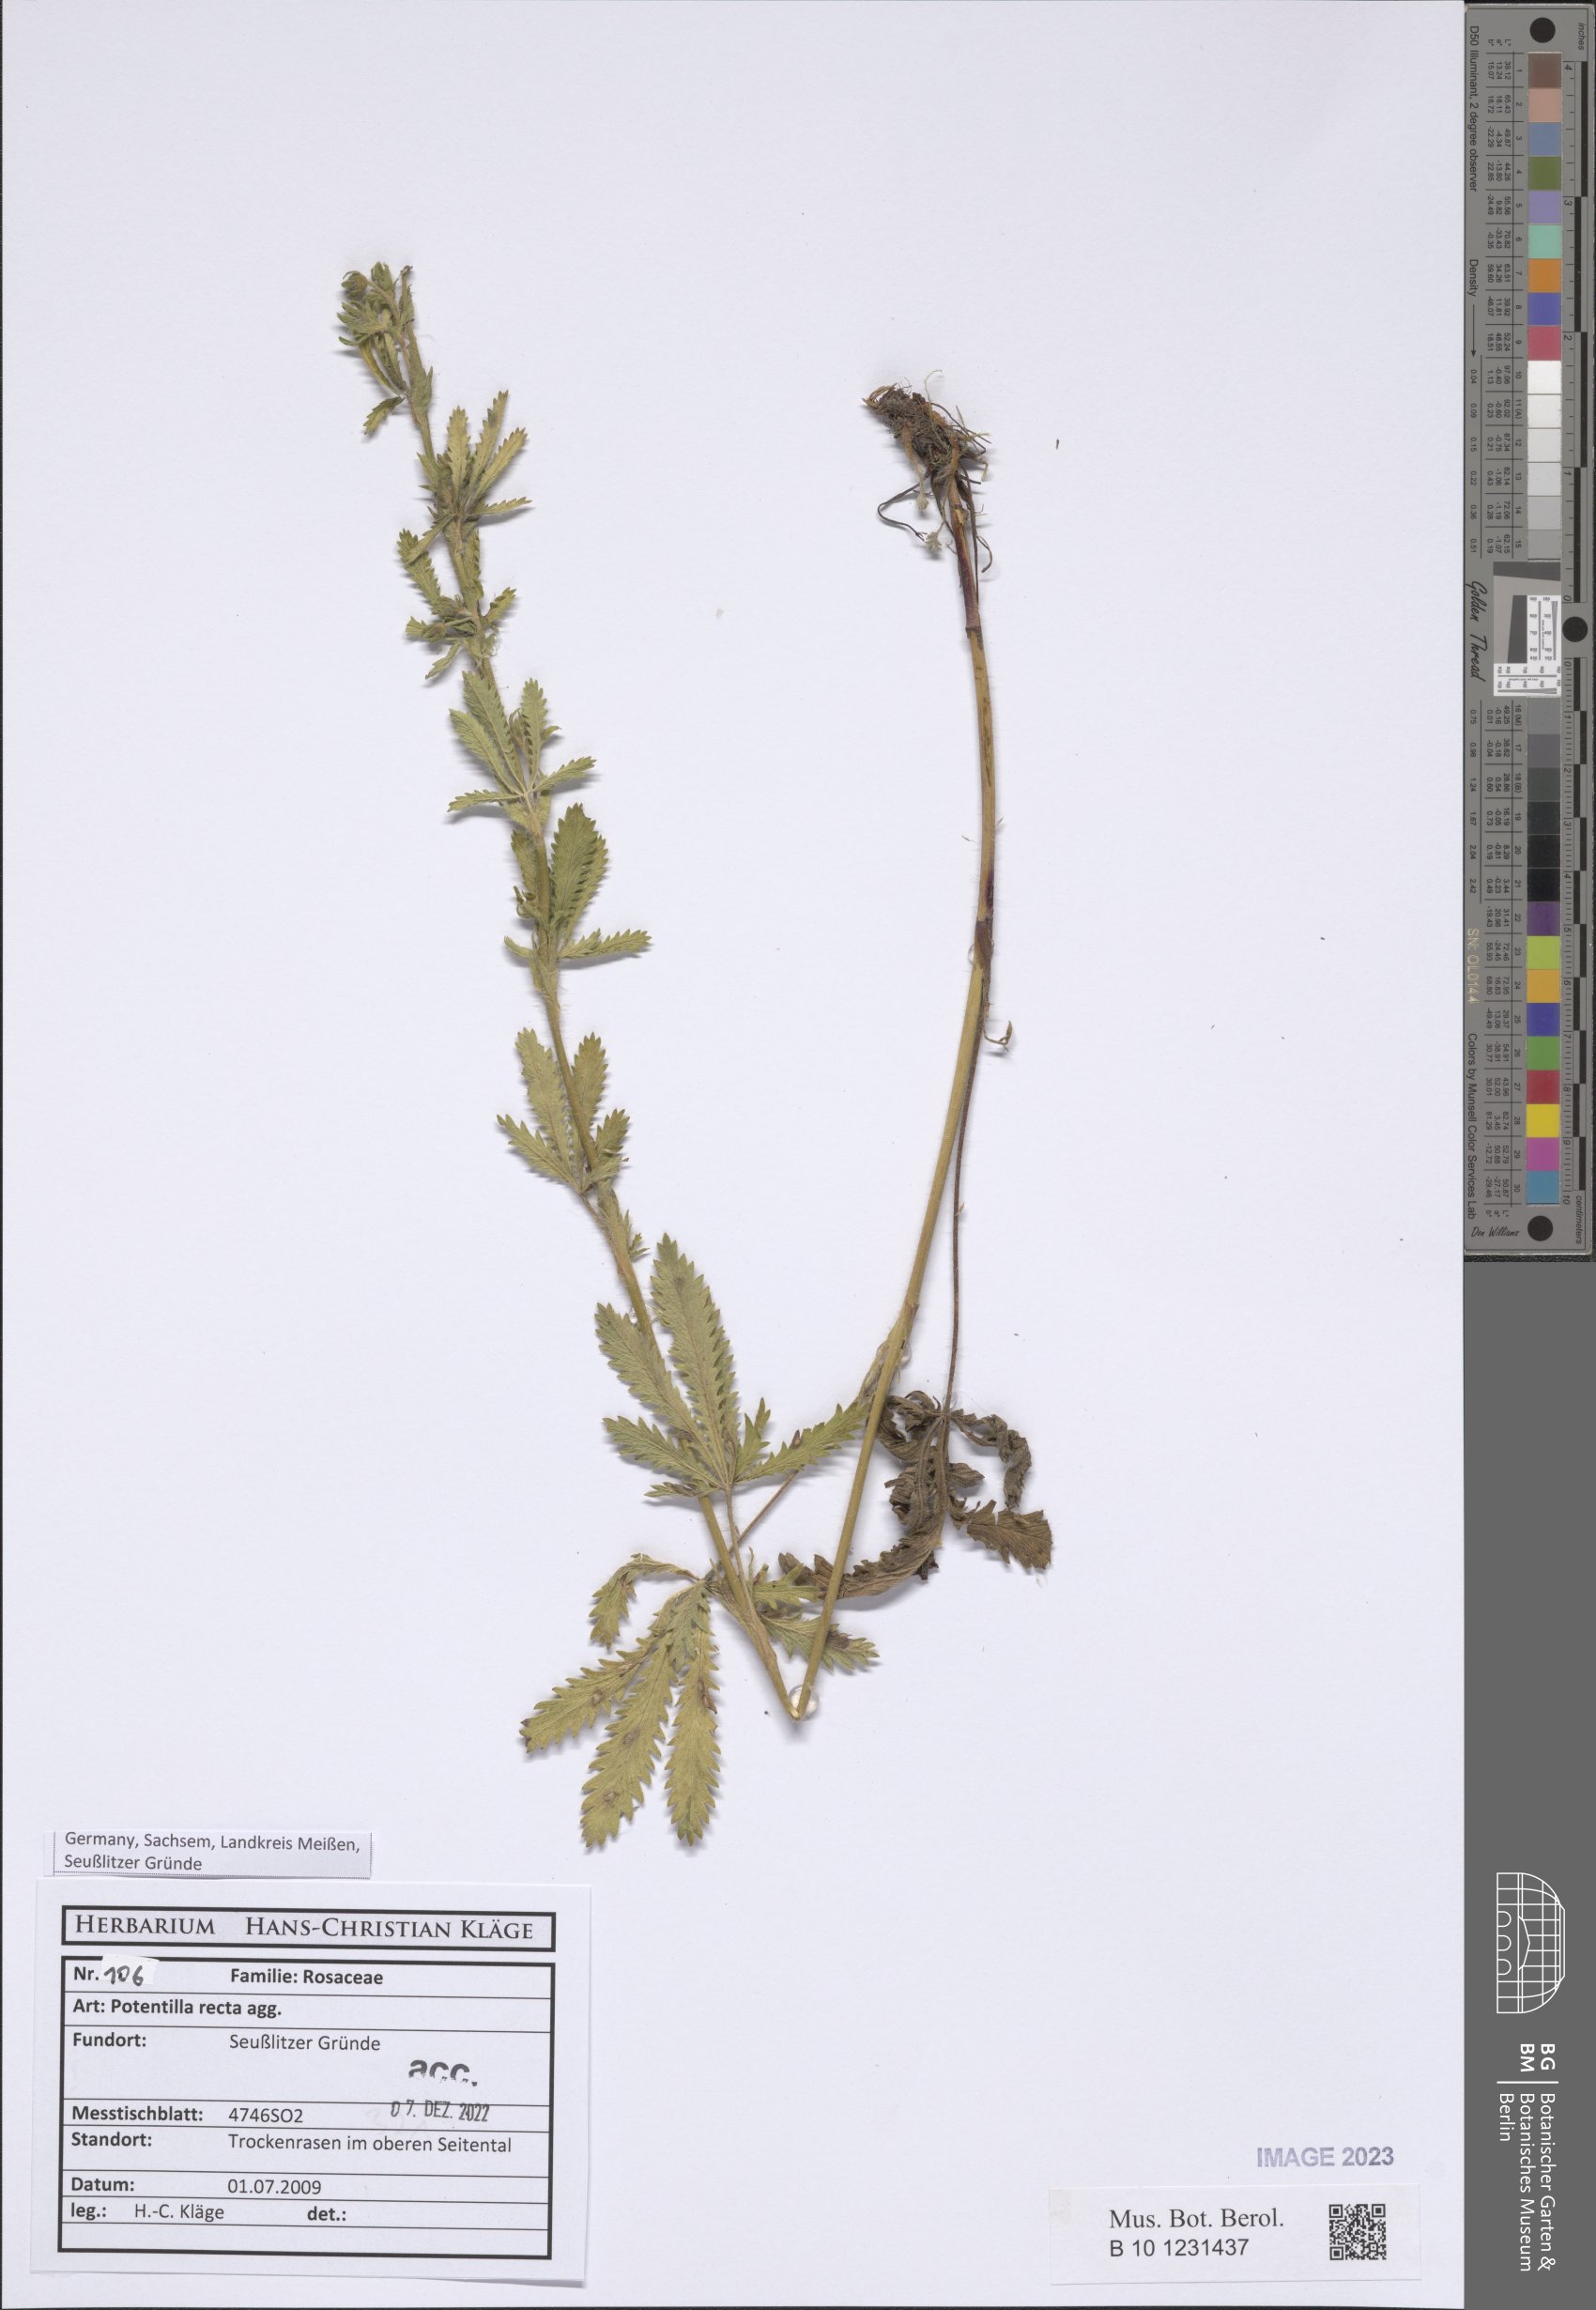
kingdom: Plantae
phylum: Tracheophyta
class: Magnoliopsida
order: Rosales
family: Rosaceae
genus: Potentilla
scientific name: Potentilla recta
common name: Sulphur cinquefoil
